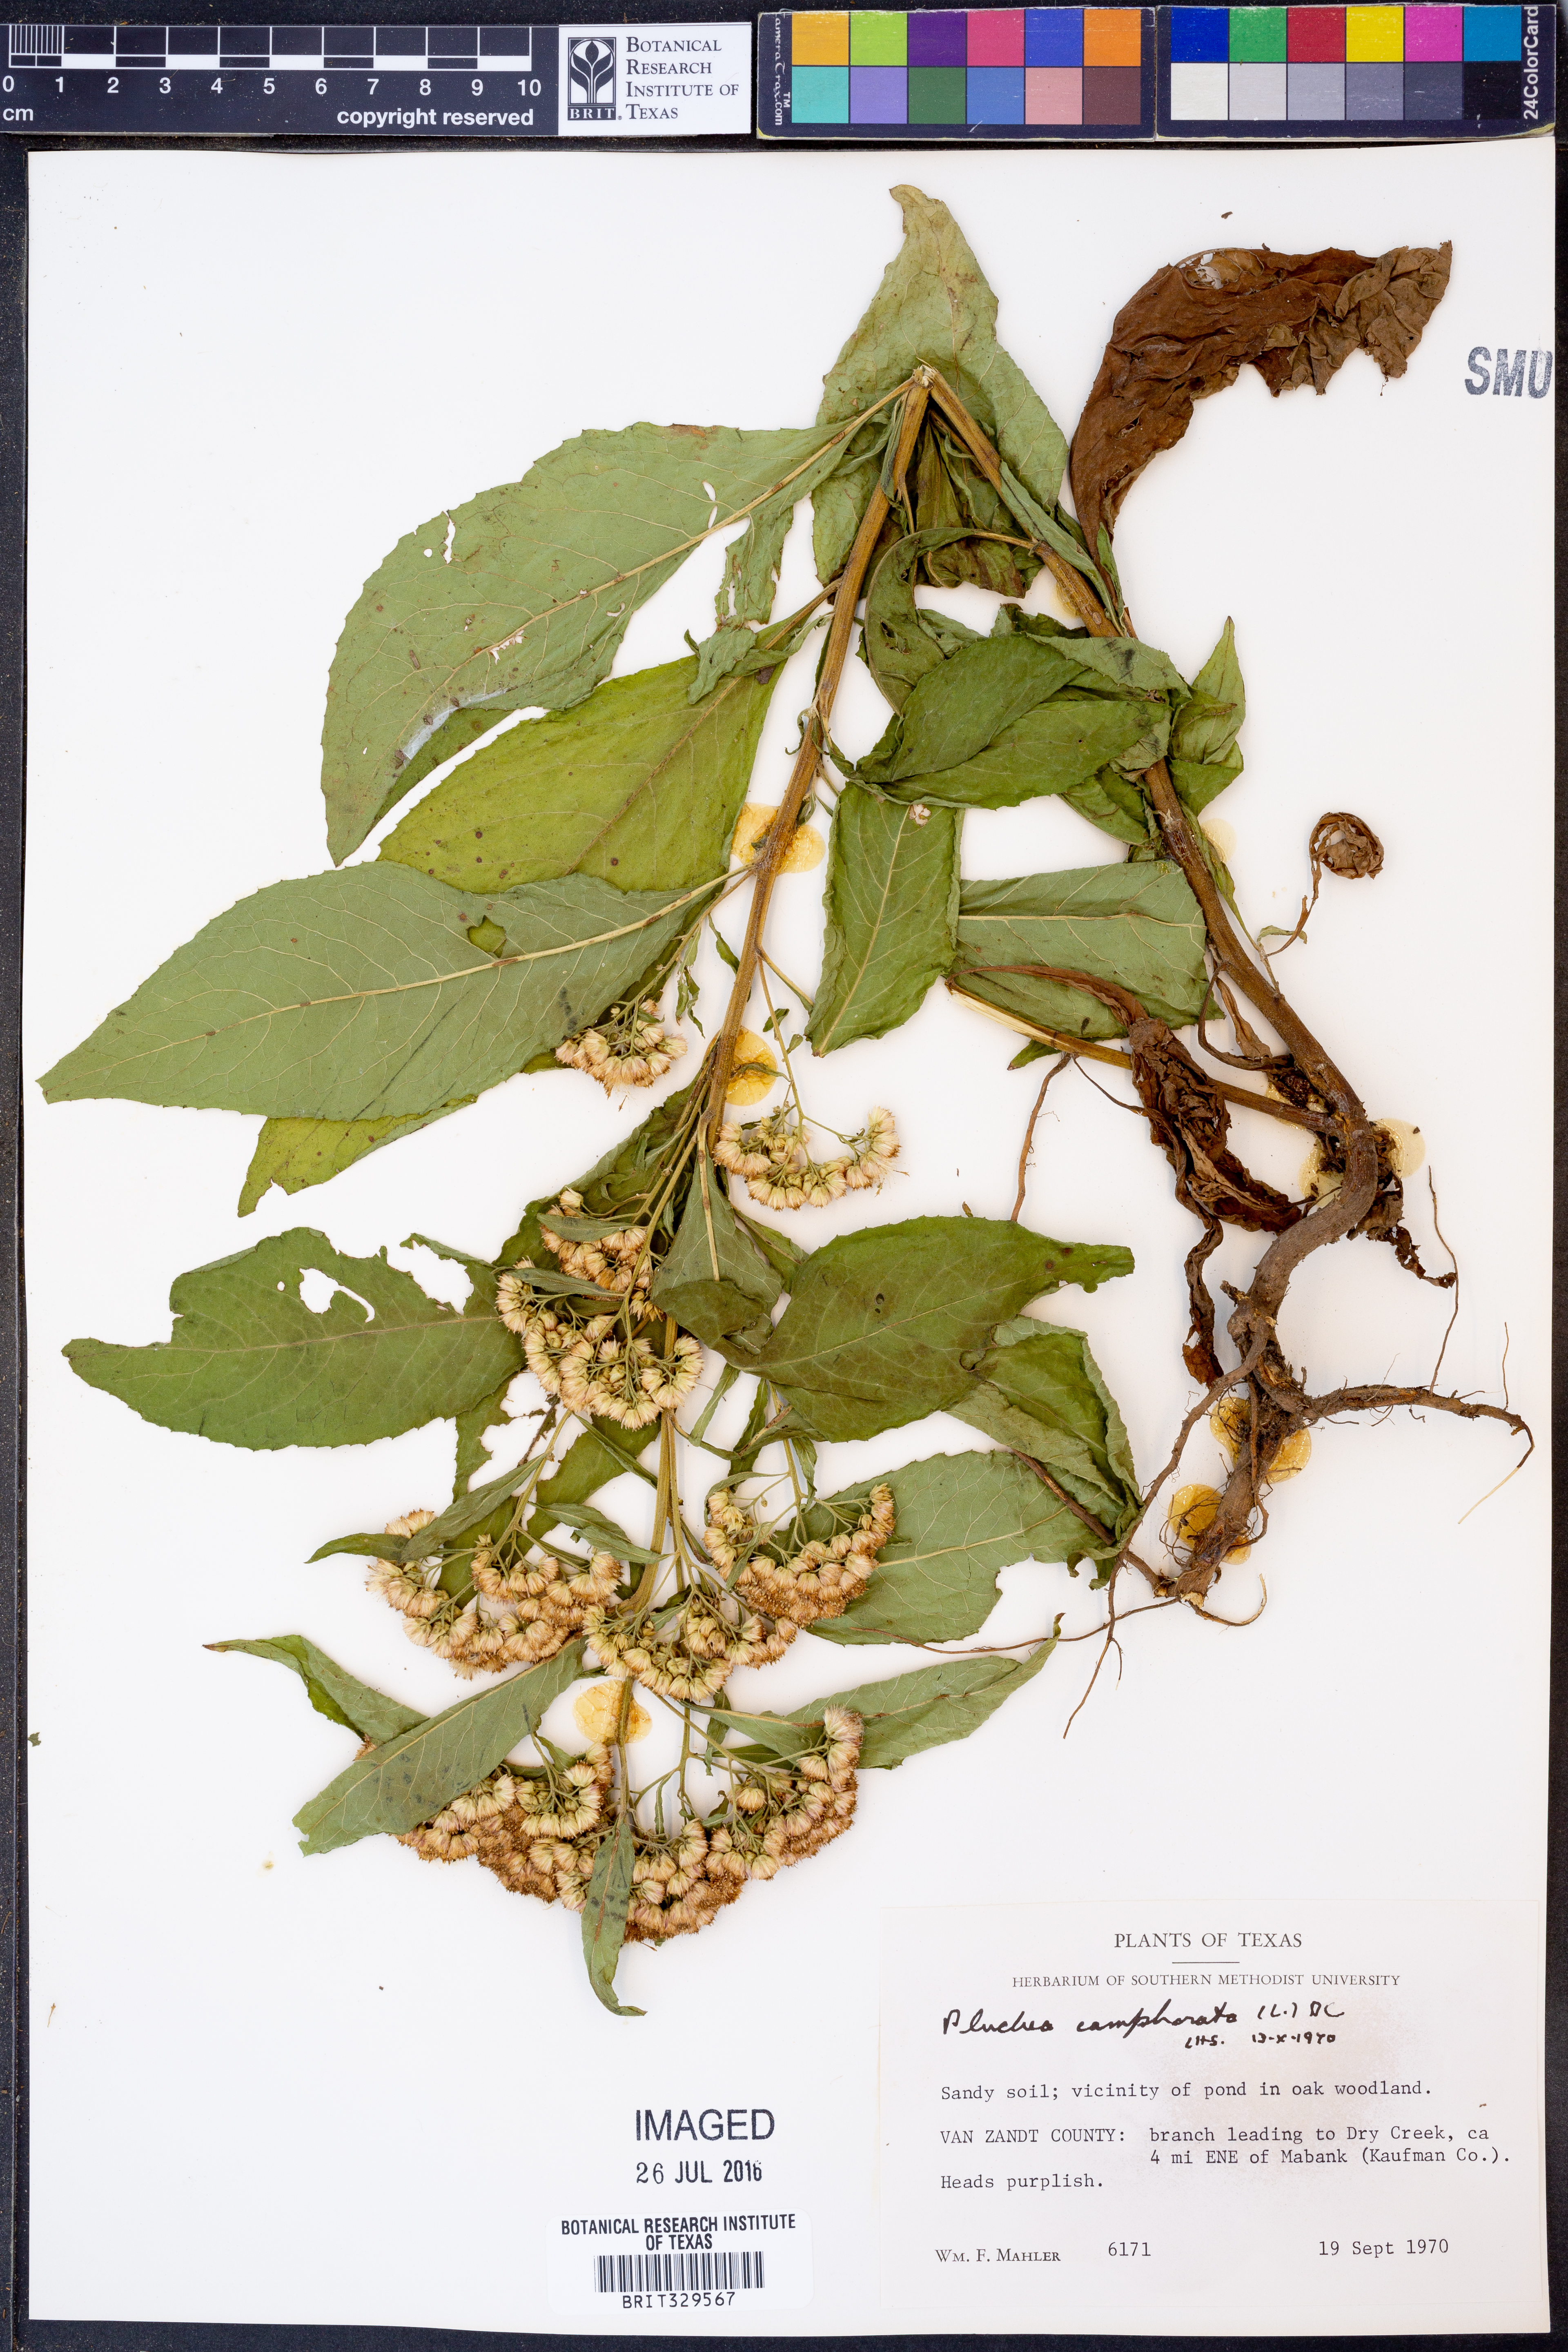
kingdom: Plantae
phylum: Tracheophyta
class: Magnoliopsida
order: Asterales
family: Asteraceae
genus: Pluchea
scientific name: Pluchea camphorata
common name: Camphor pluchea
